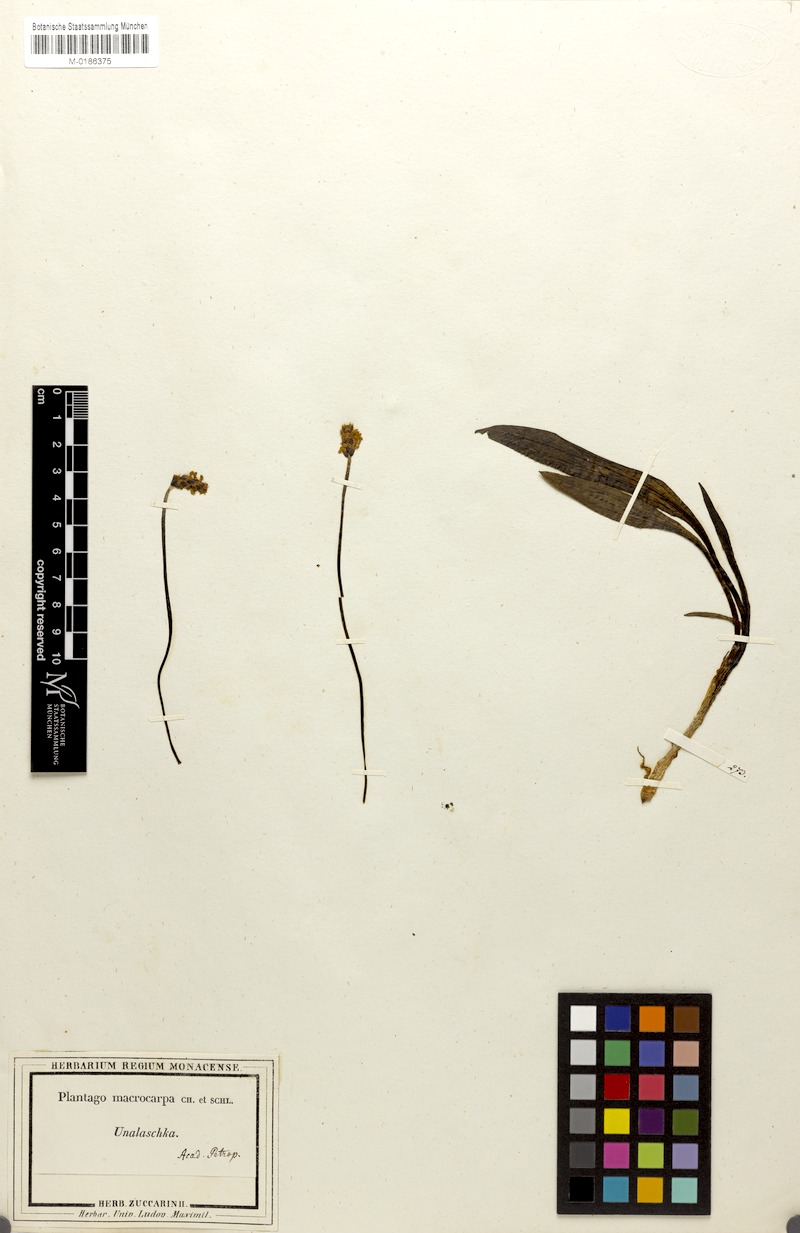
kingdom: Plantae
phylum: Tracheophyta
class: Magnoliopsida
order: Lamiales
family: Plantaginaceae
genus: Plantago
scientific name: Plantago macrocarpa
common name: Alaska plantain
